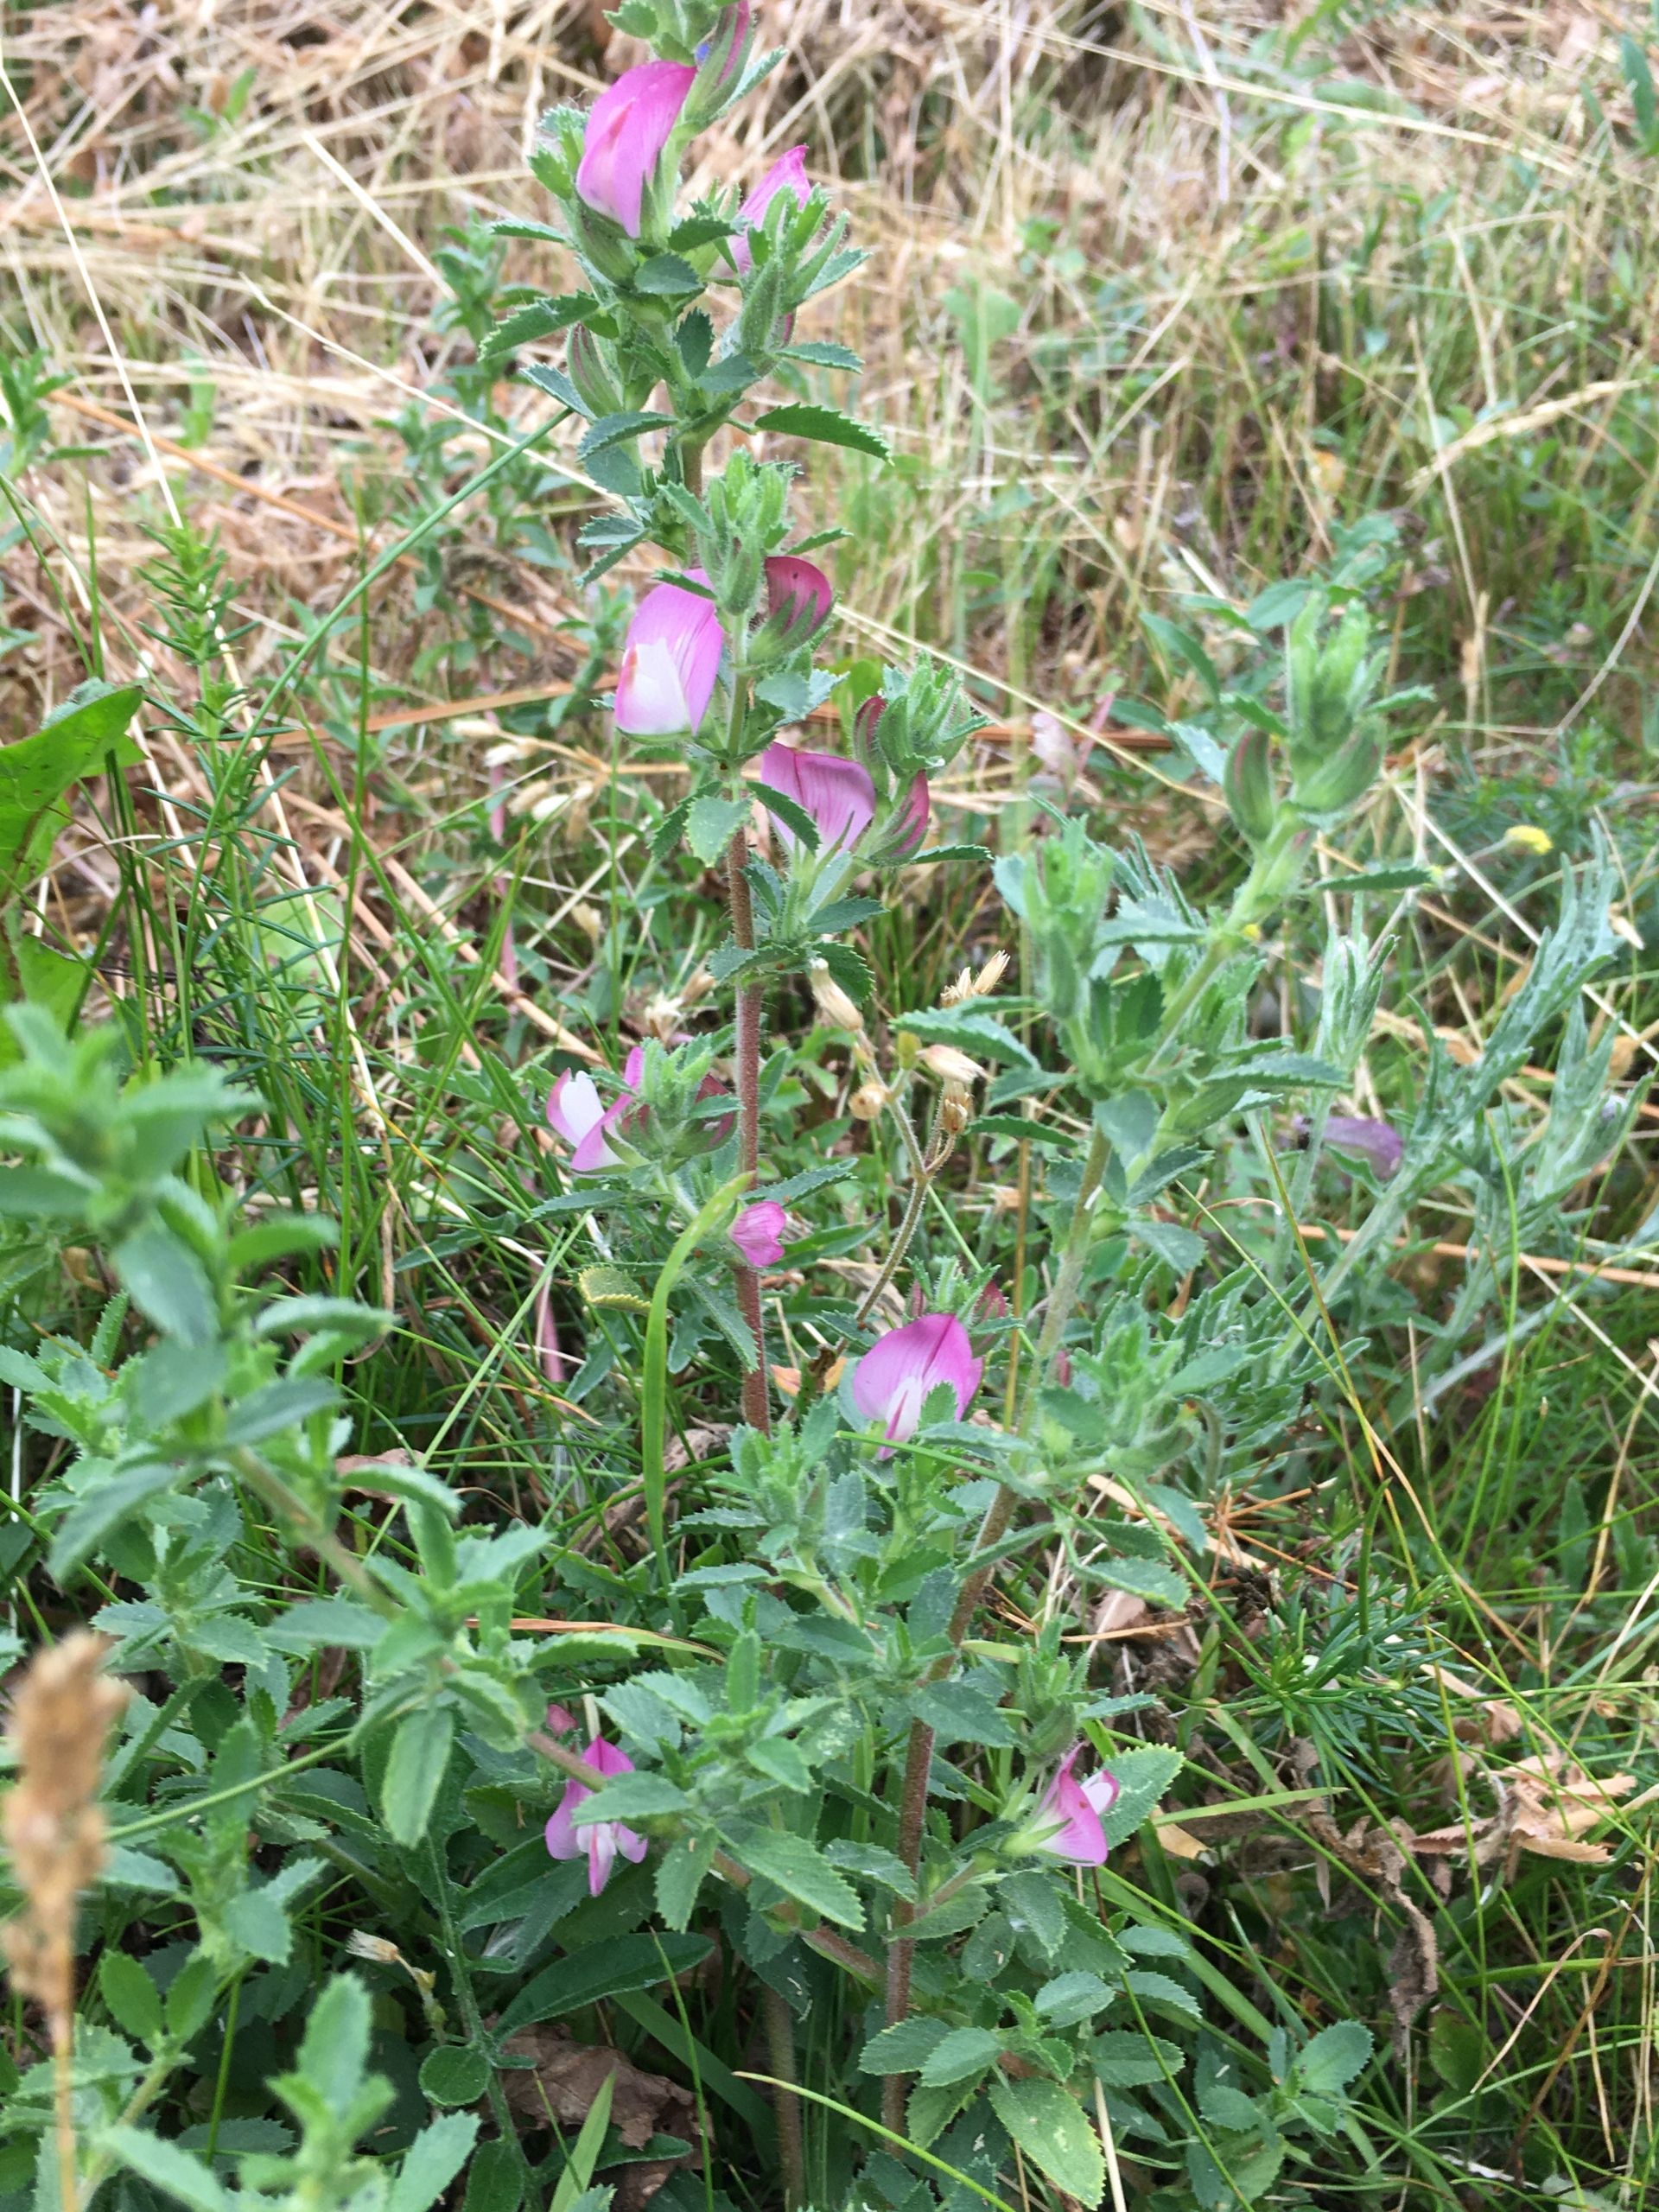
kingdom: Plantae
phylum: Tracheophyta
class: Magnoliopsida
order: Fabales
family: Fabaceae
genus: Ononis
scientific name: Ononis spinosa
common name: Mark-krageklo
